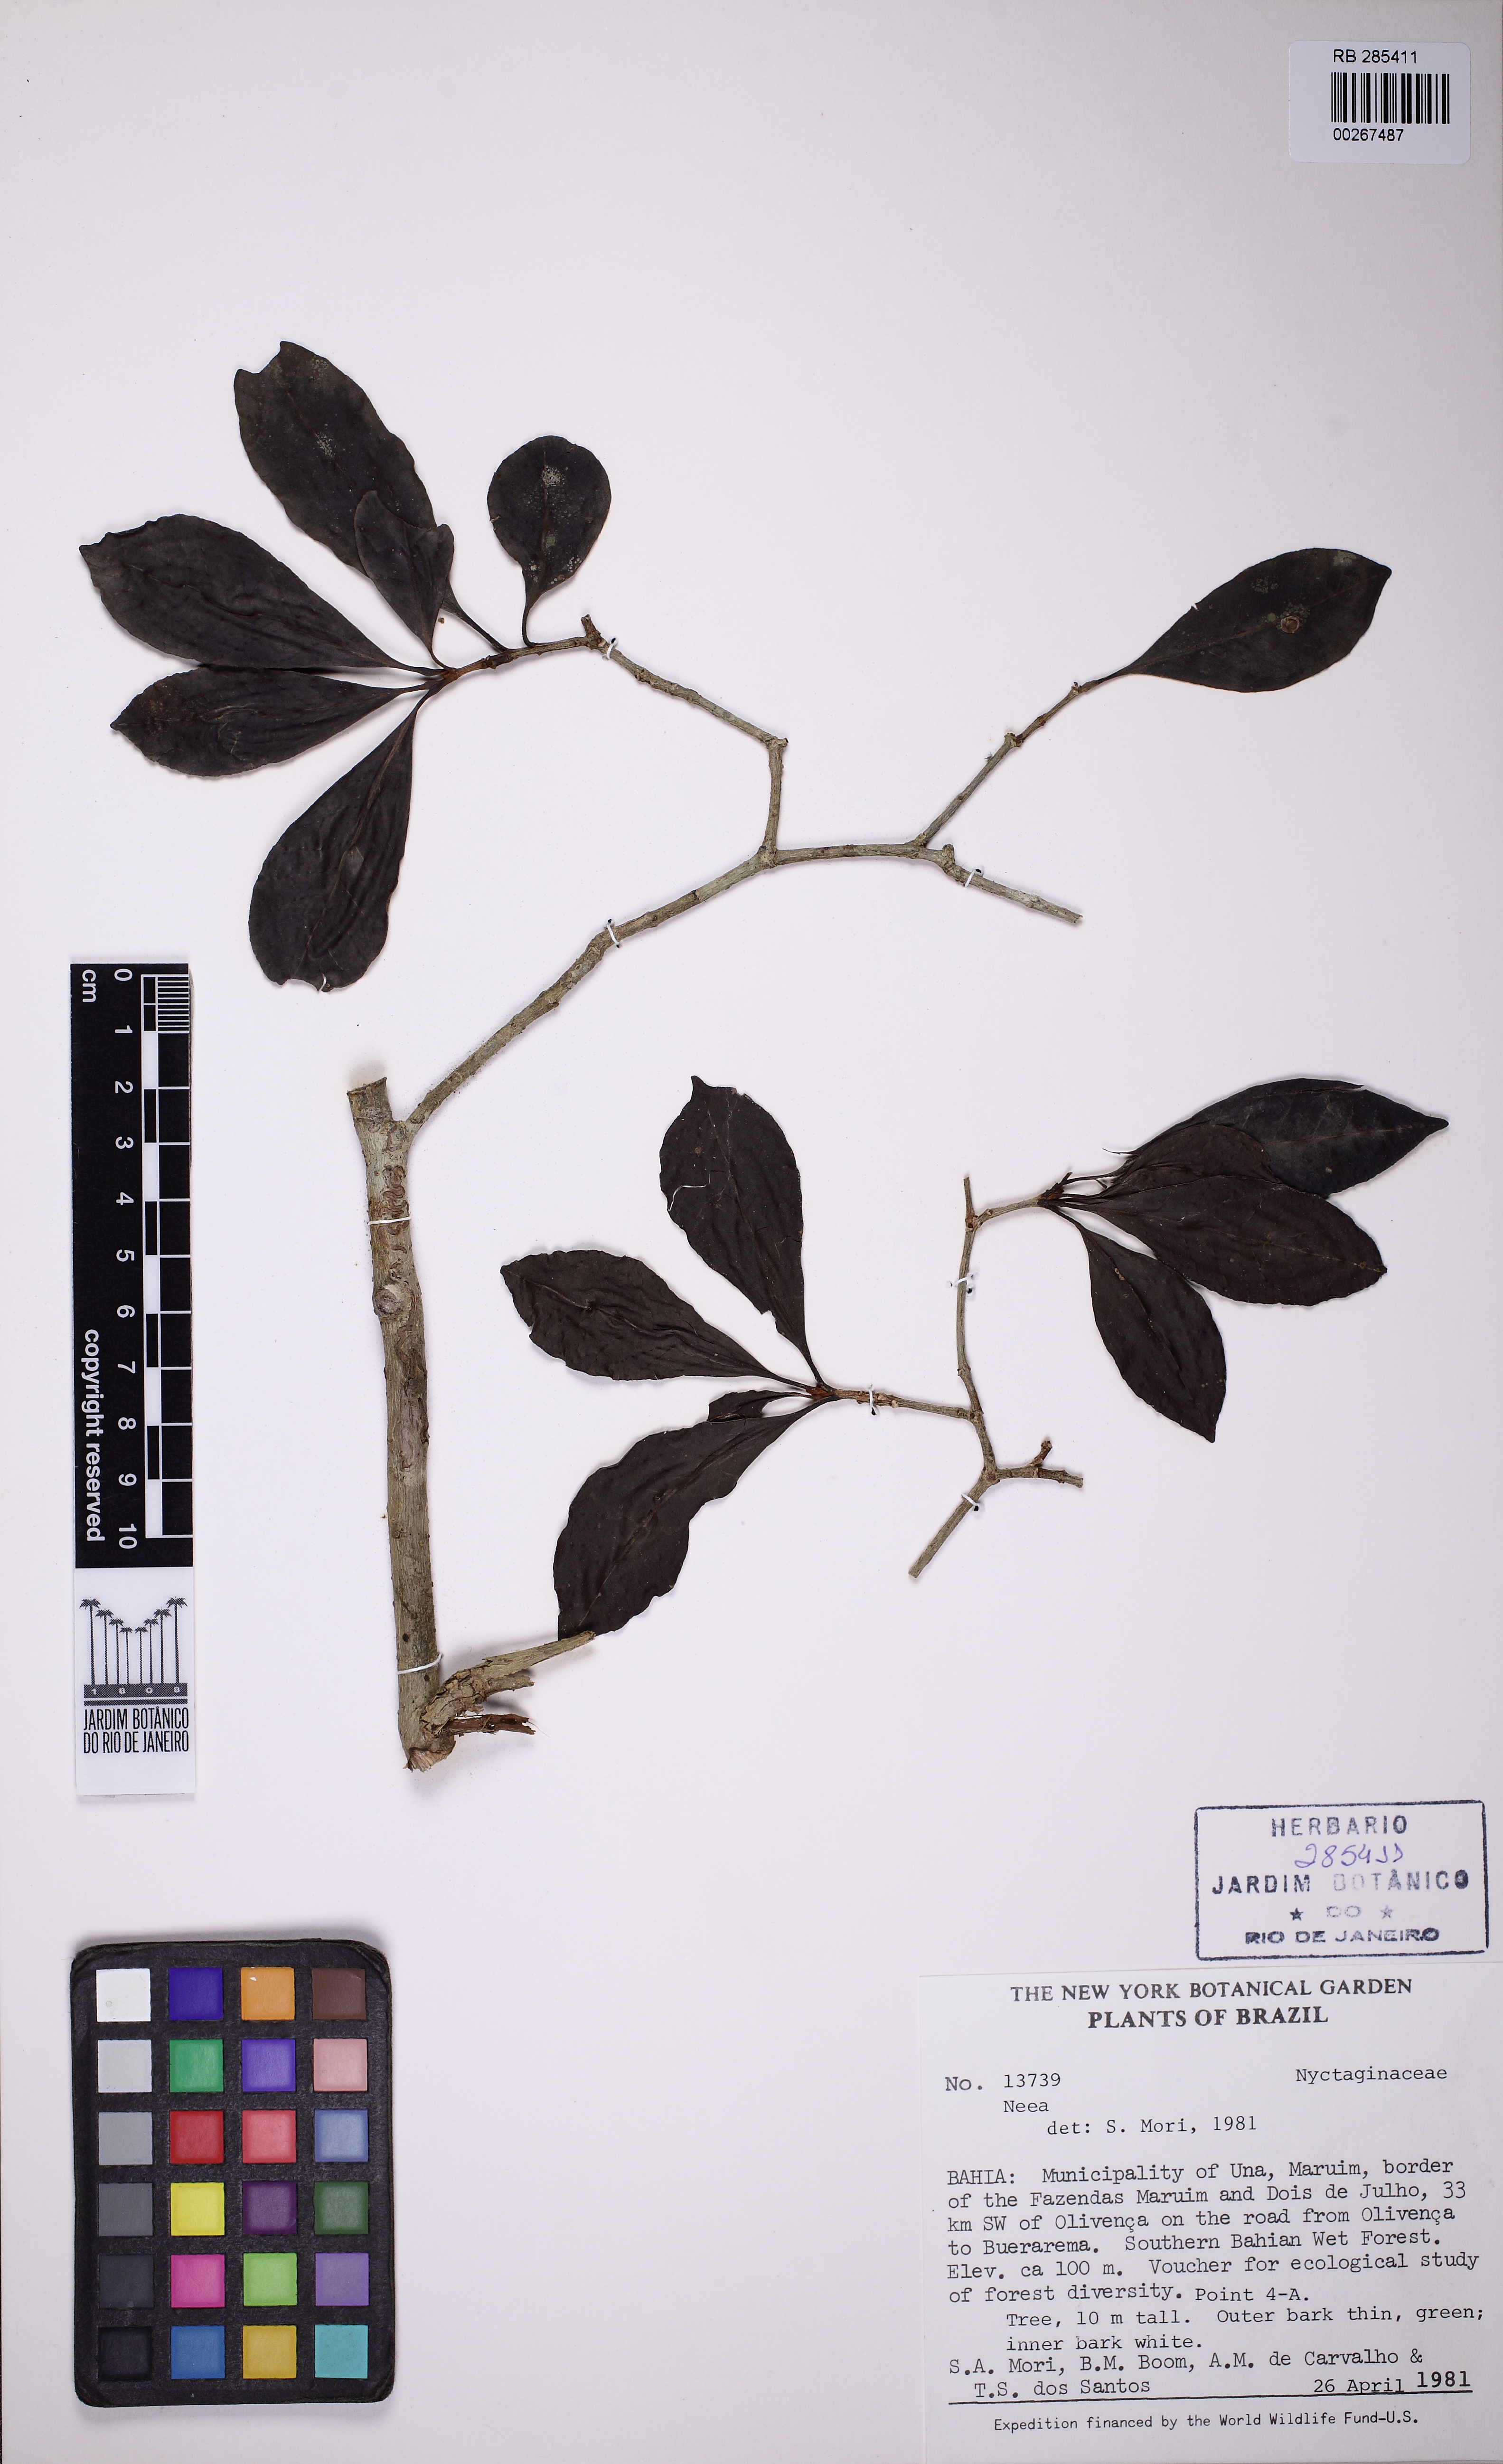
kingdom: Plantae
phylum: Tracheophyta
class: Magnoliopsida
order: Caryophyllales
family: Nyctaginaceae
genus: Guapira
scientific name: Guapira obtusata
